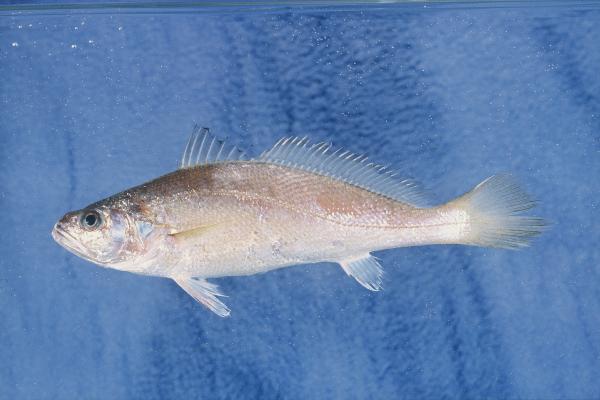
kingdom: Animalia
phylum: Chordata
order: Perciformes
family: Sciaenidae
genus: Otolithes
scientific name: Otolithes ruber
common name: Croaker
